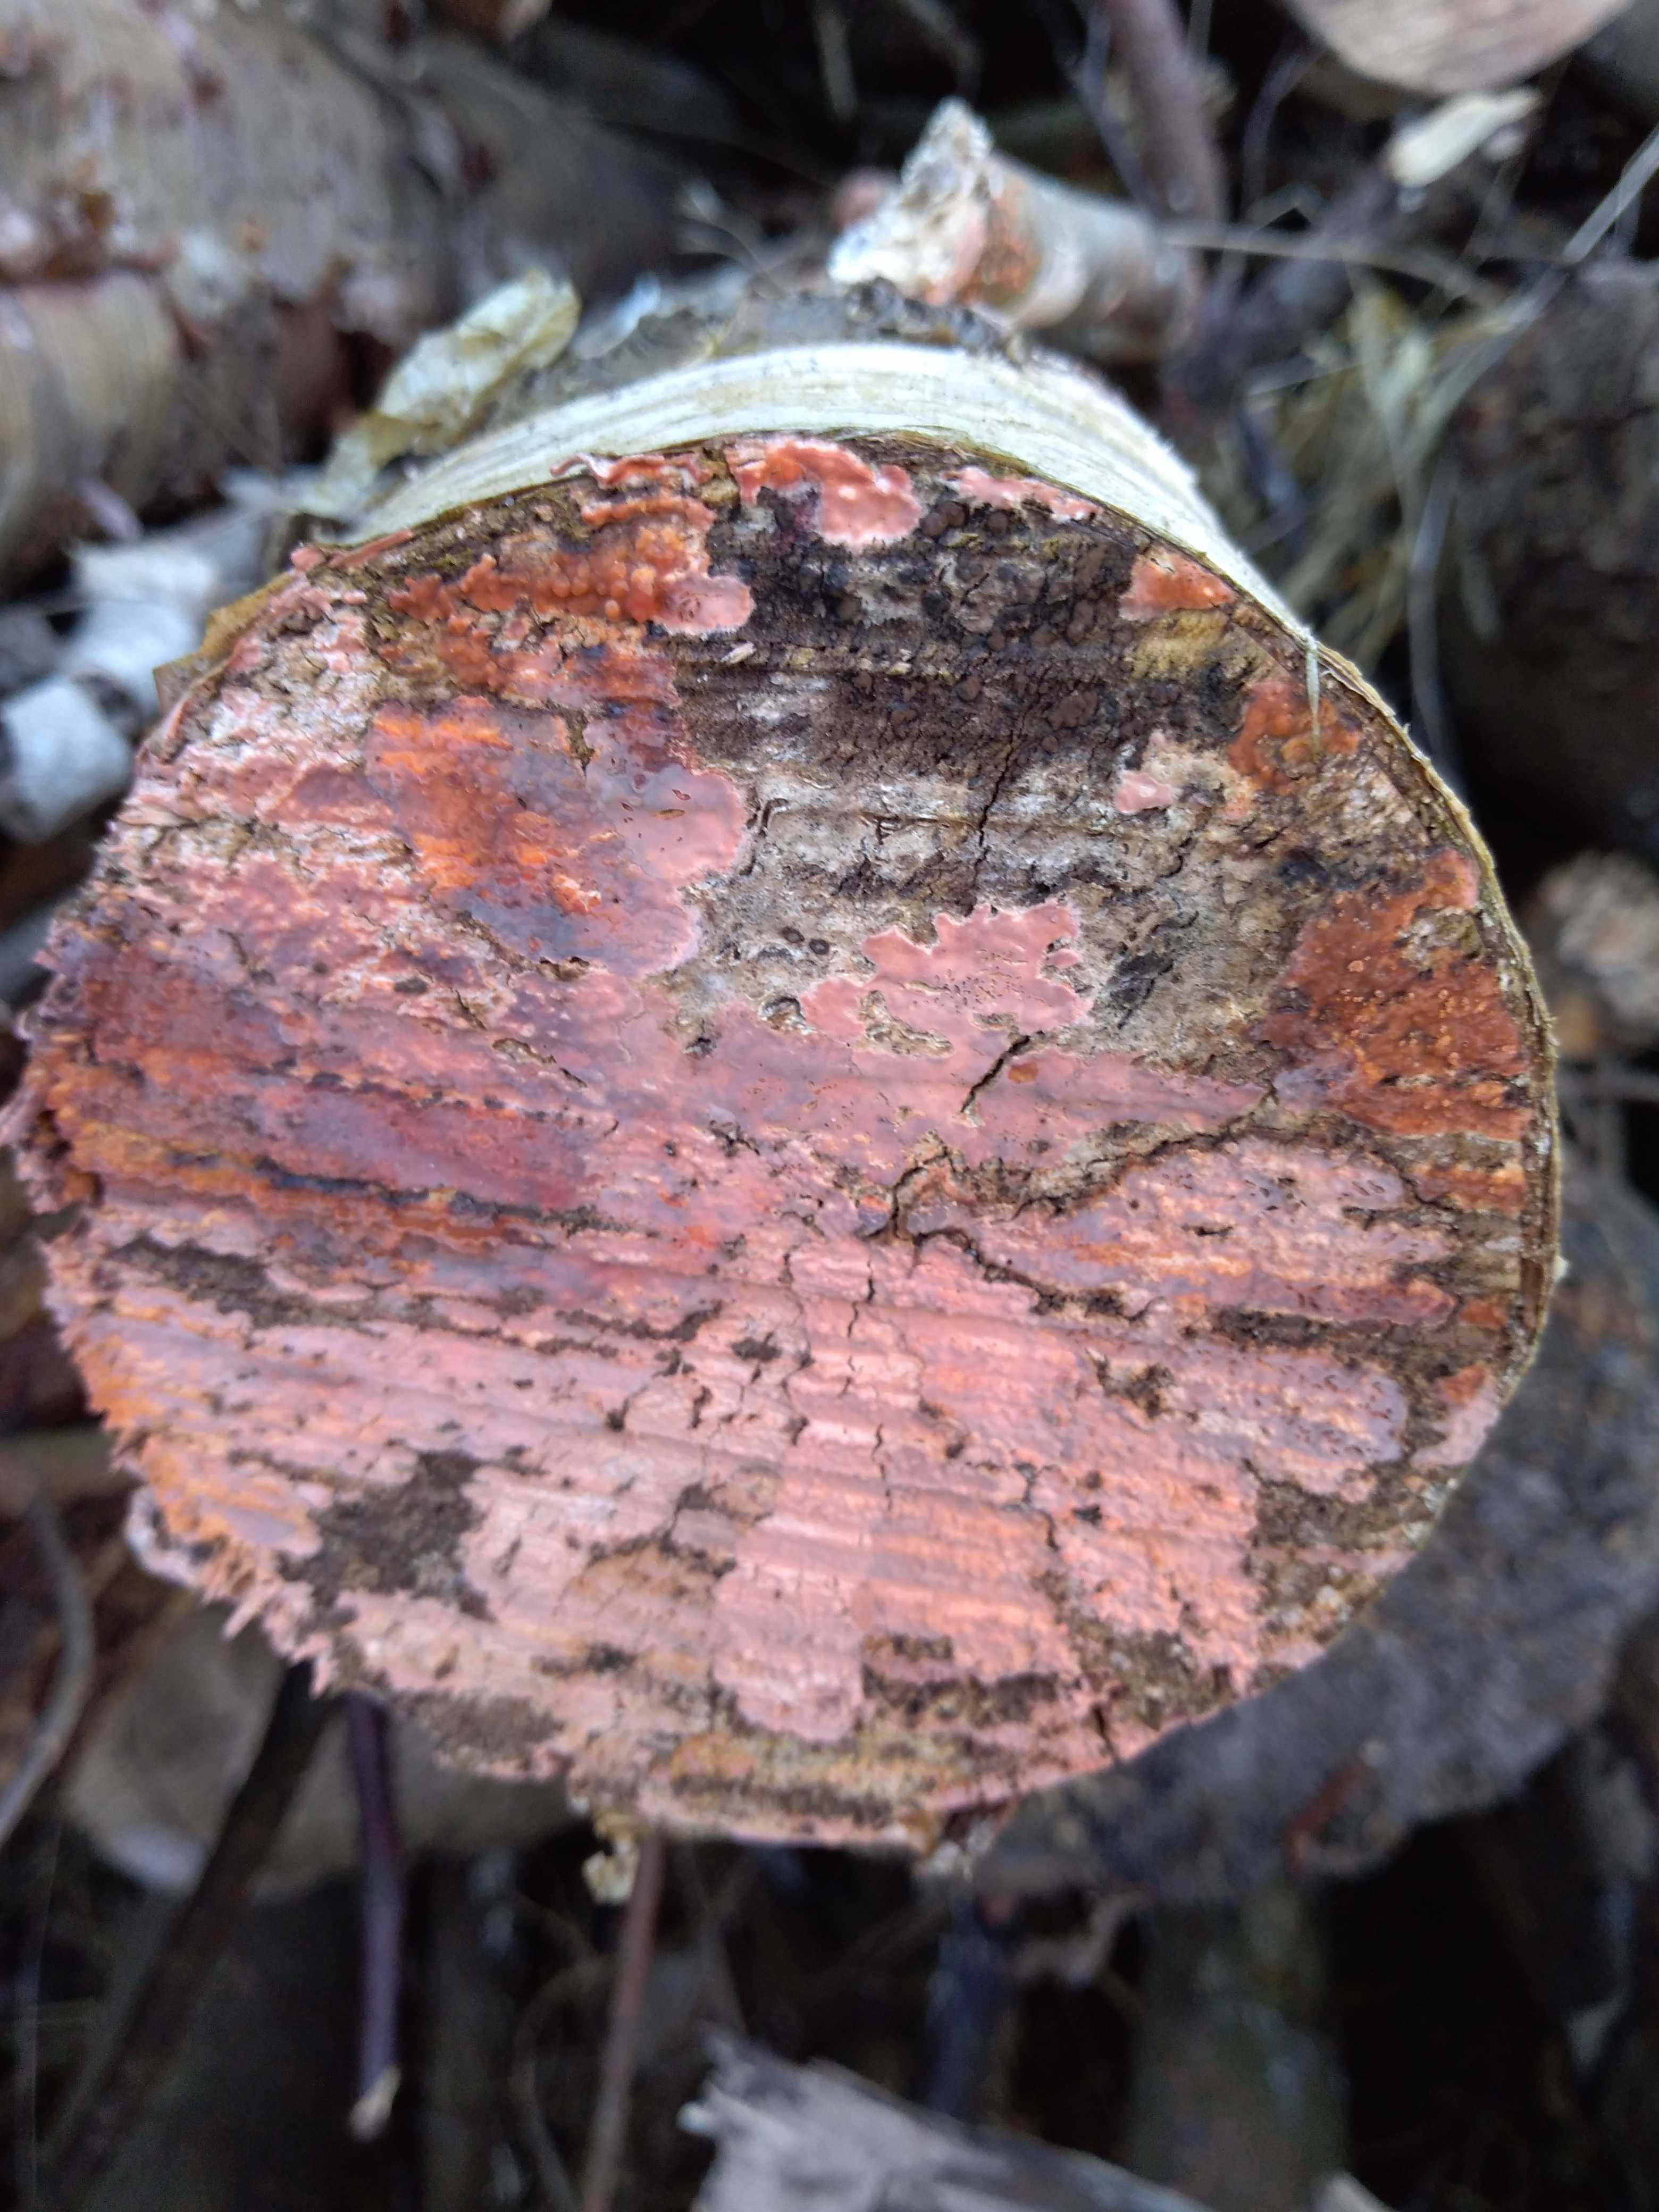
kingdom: Fungi
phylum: Basidiomycota
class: Agaricomycetes
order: Corticiales
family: Corticiaceae
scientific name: Corticiaceae
